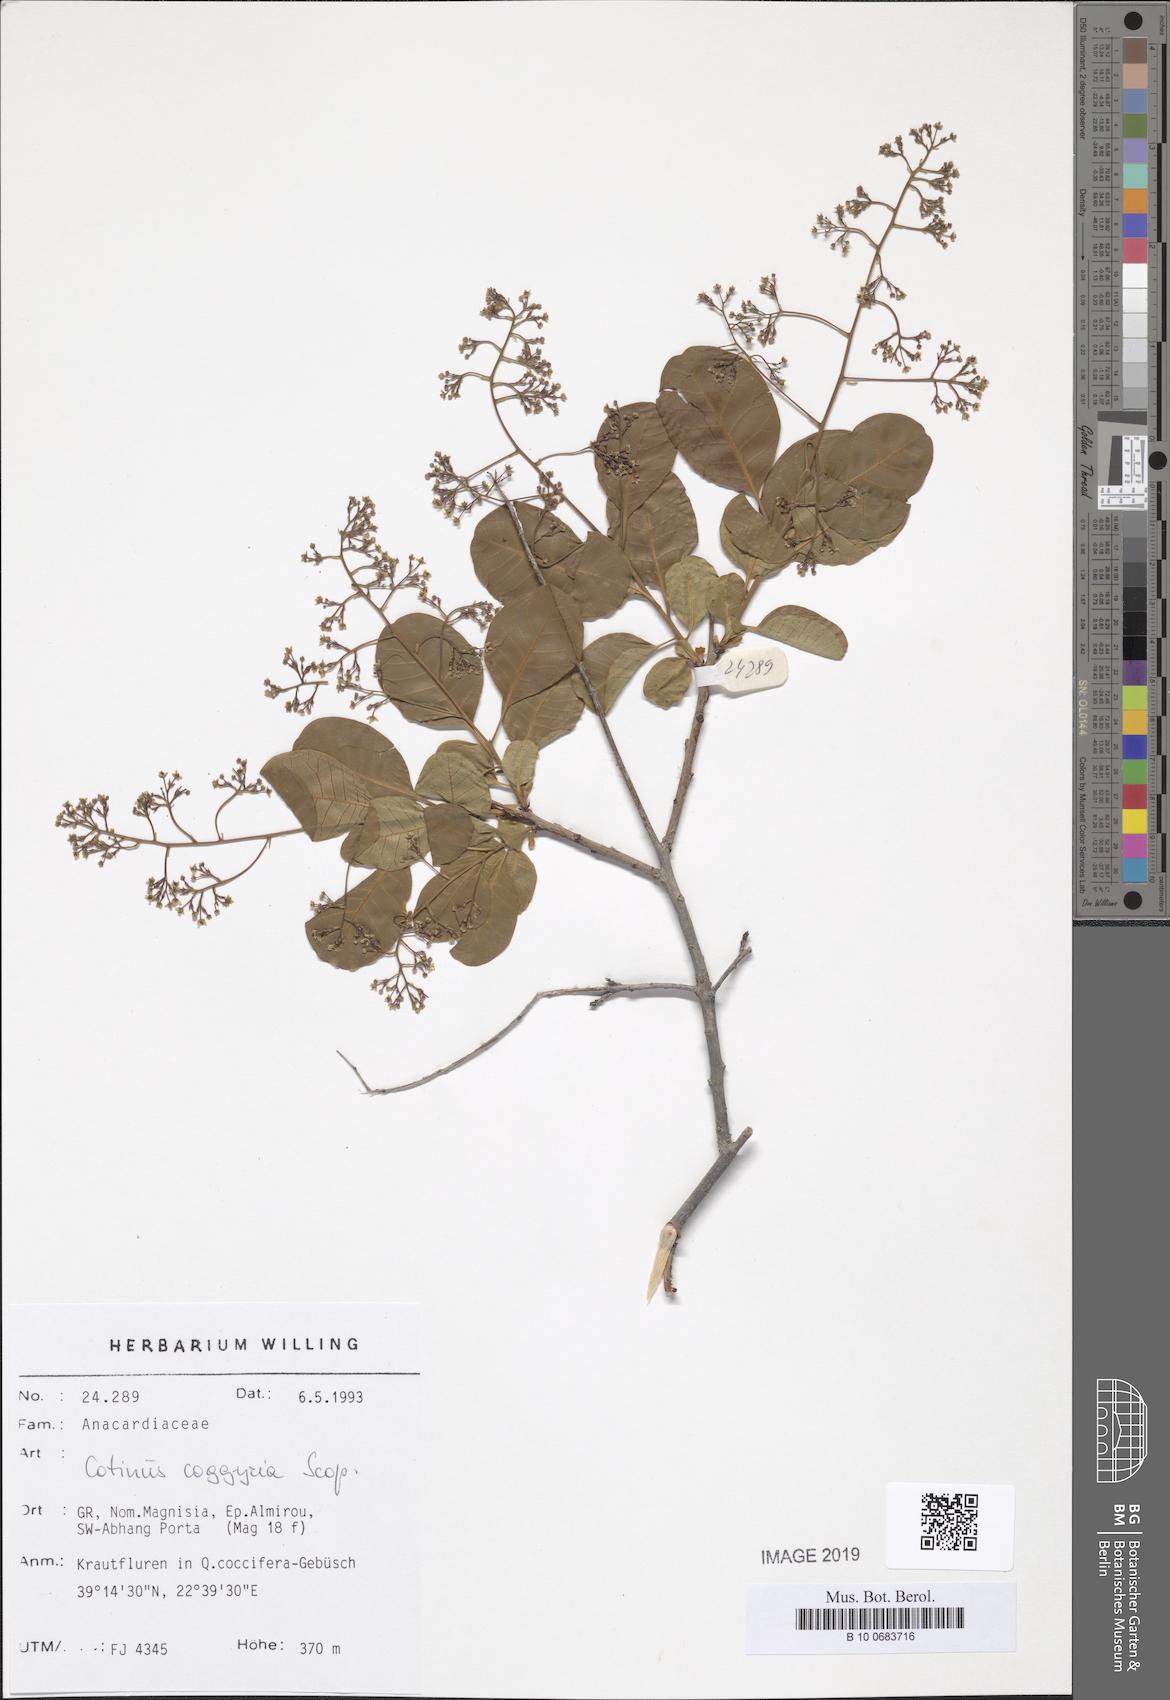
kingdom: Plantae
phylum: Tracheophyta
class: Magnoliopsida
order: Sapindales
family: Anacardiaceae
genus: Cotinus
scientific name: Cotinus coggygria
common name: Smoke-tree
